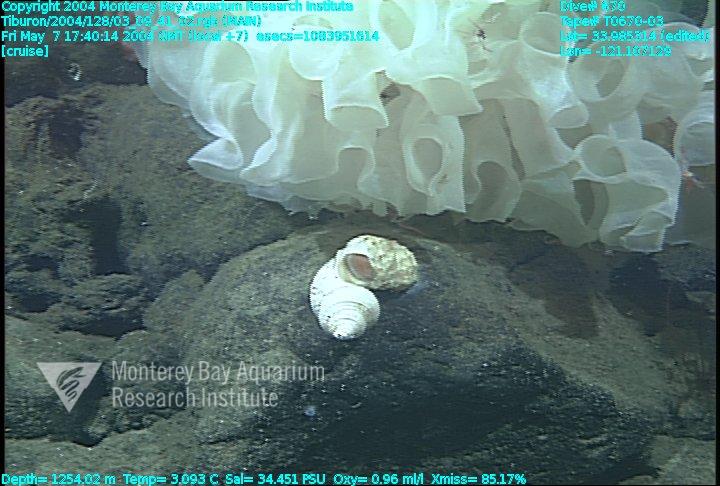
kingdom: Animalia
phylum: Porifera
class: Hexactinellida
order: Sceptrulophora
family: Farreidae
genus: Farrea
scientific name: Farrea occa
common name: Reversed glass sponge
